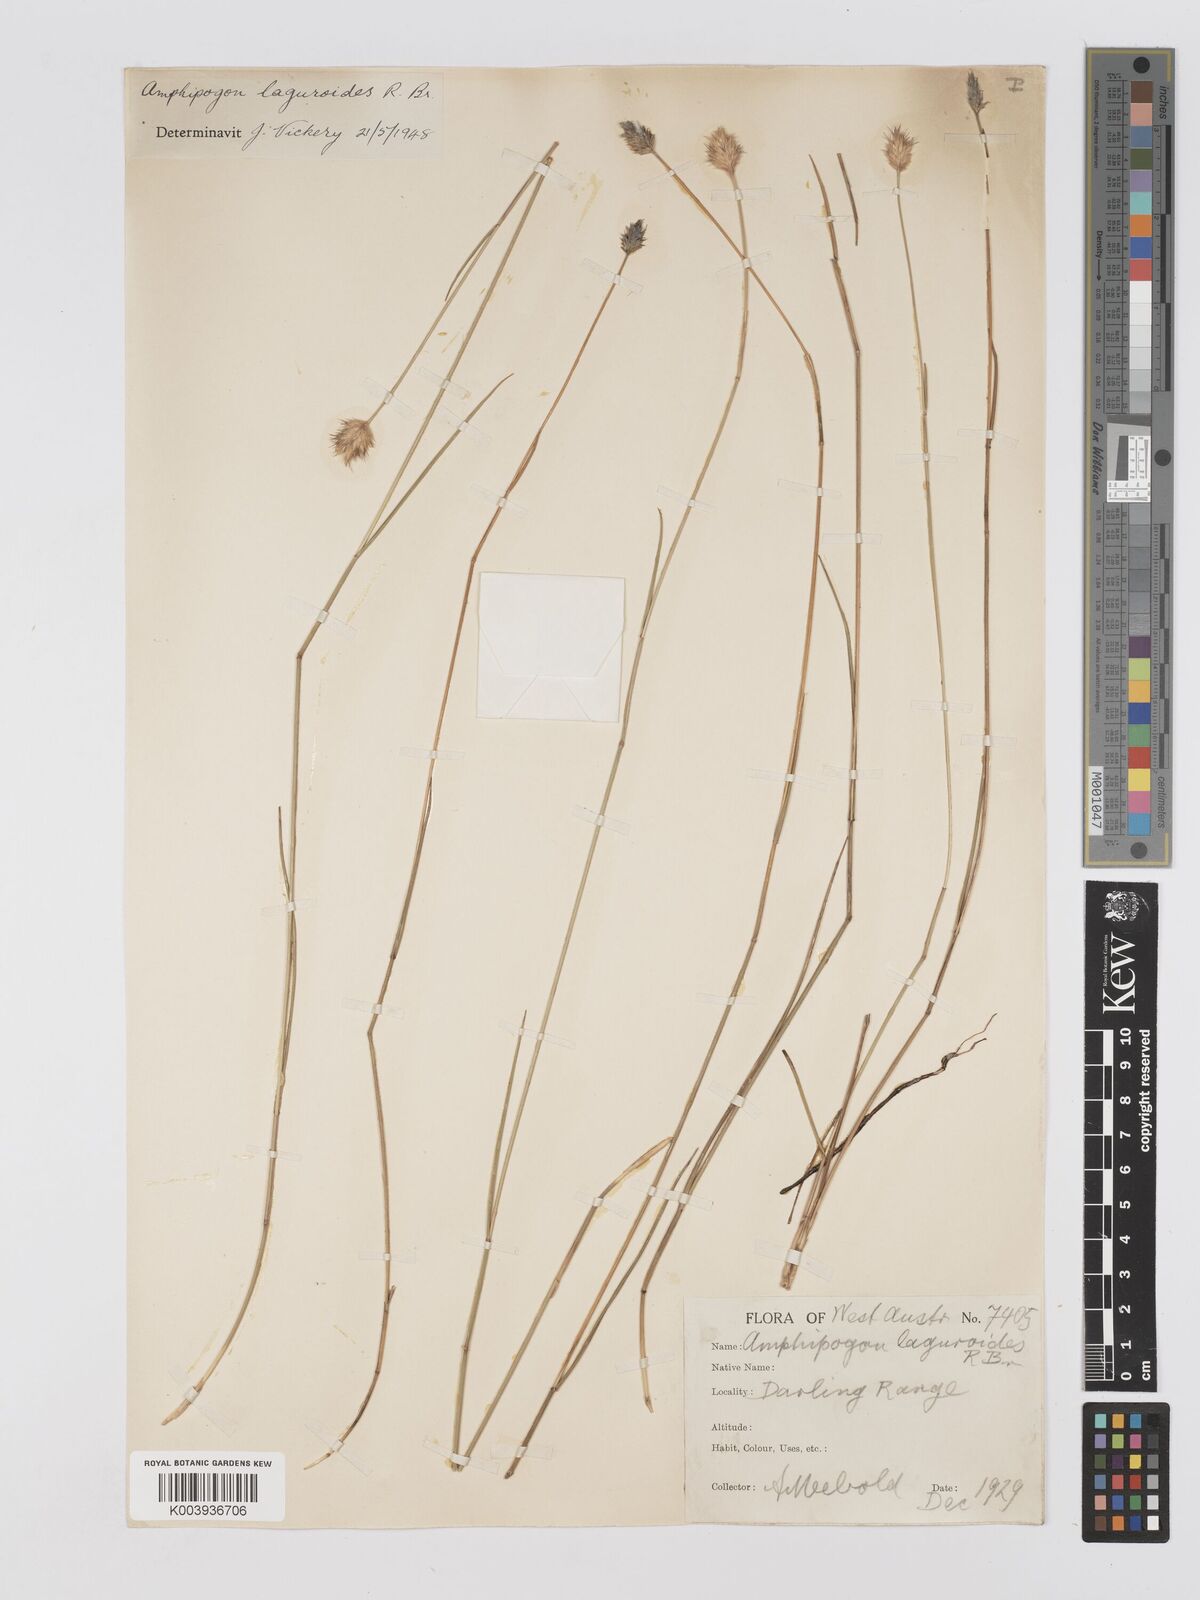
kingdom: Plantae
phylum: Tracheophyta
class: Liliopsida
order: Poales
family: Poaceae
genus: Amphipogon
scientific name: Amphipogon laguroides
